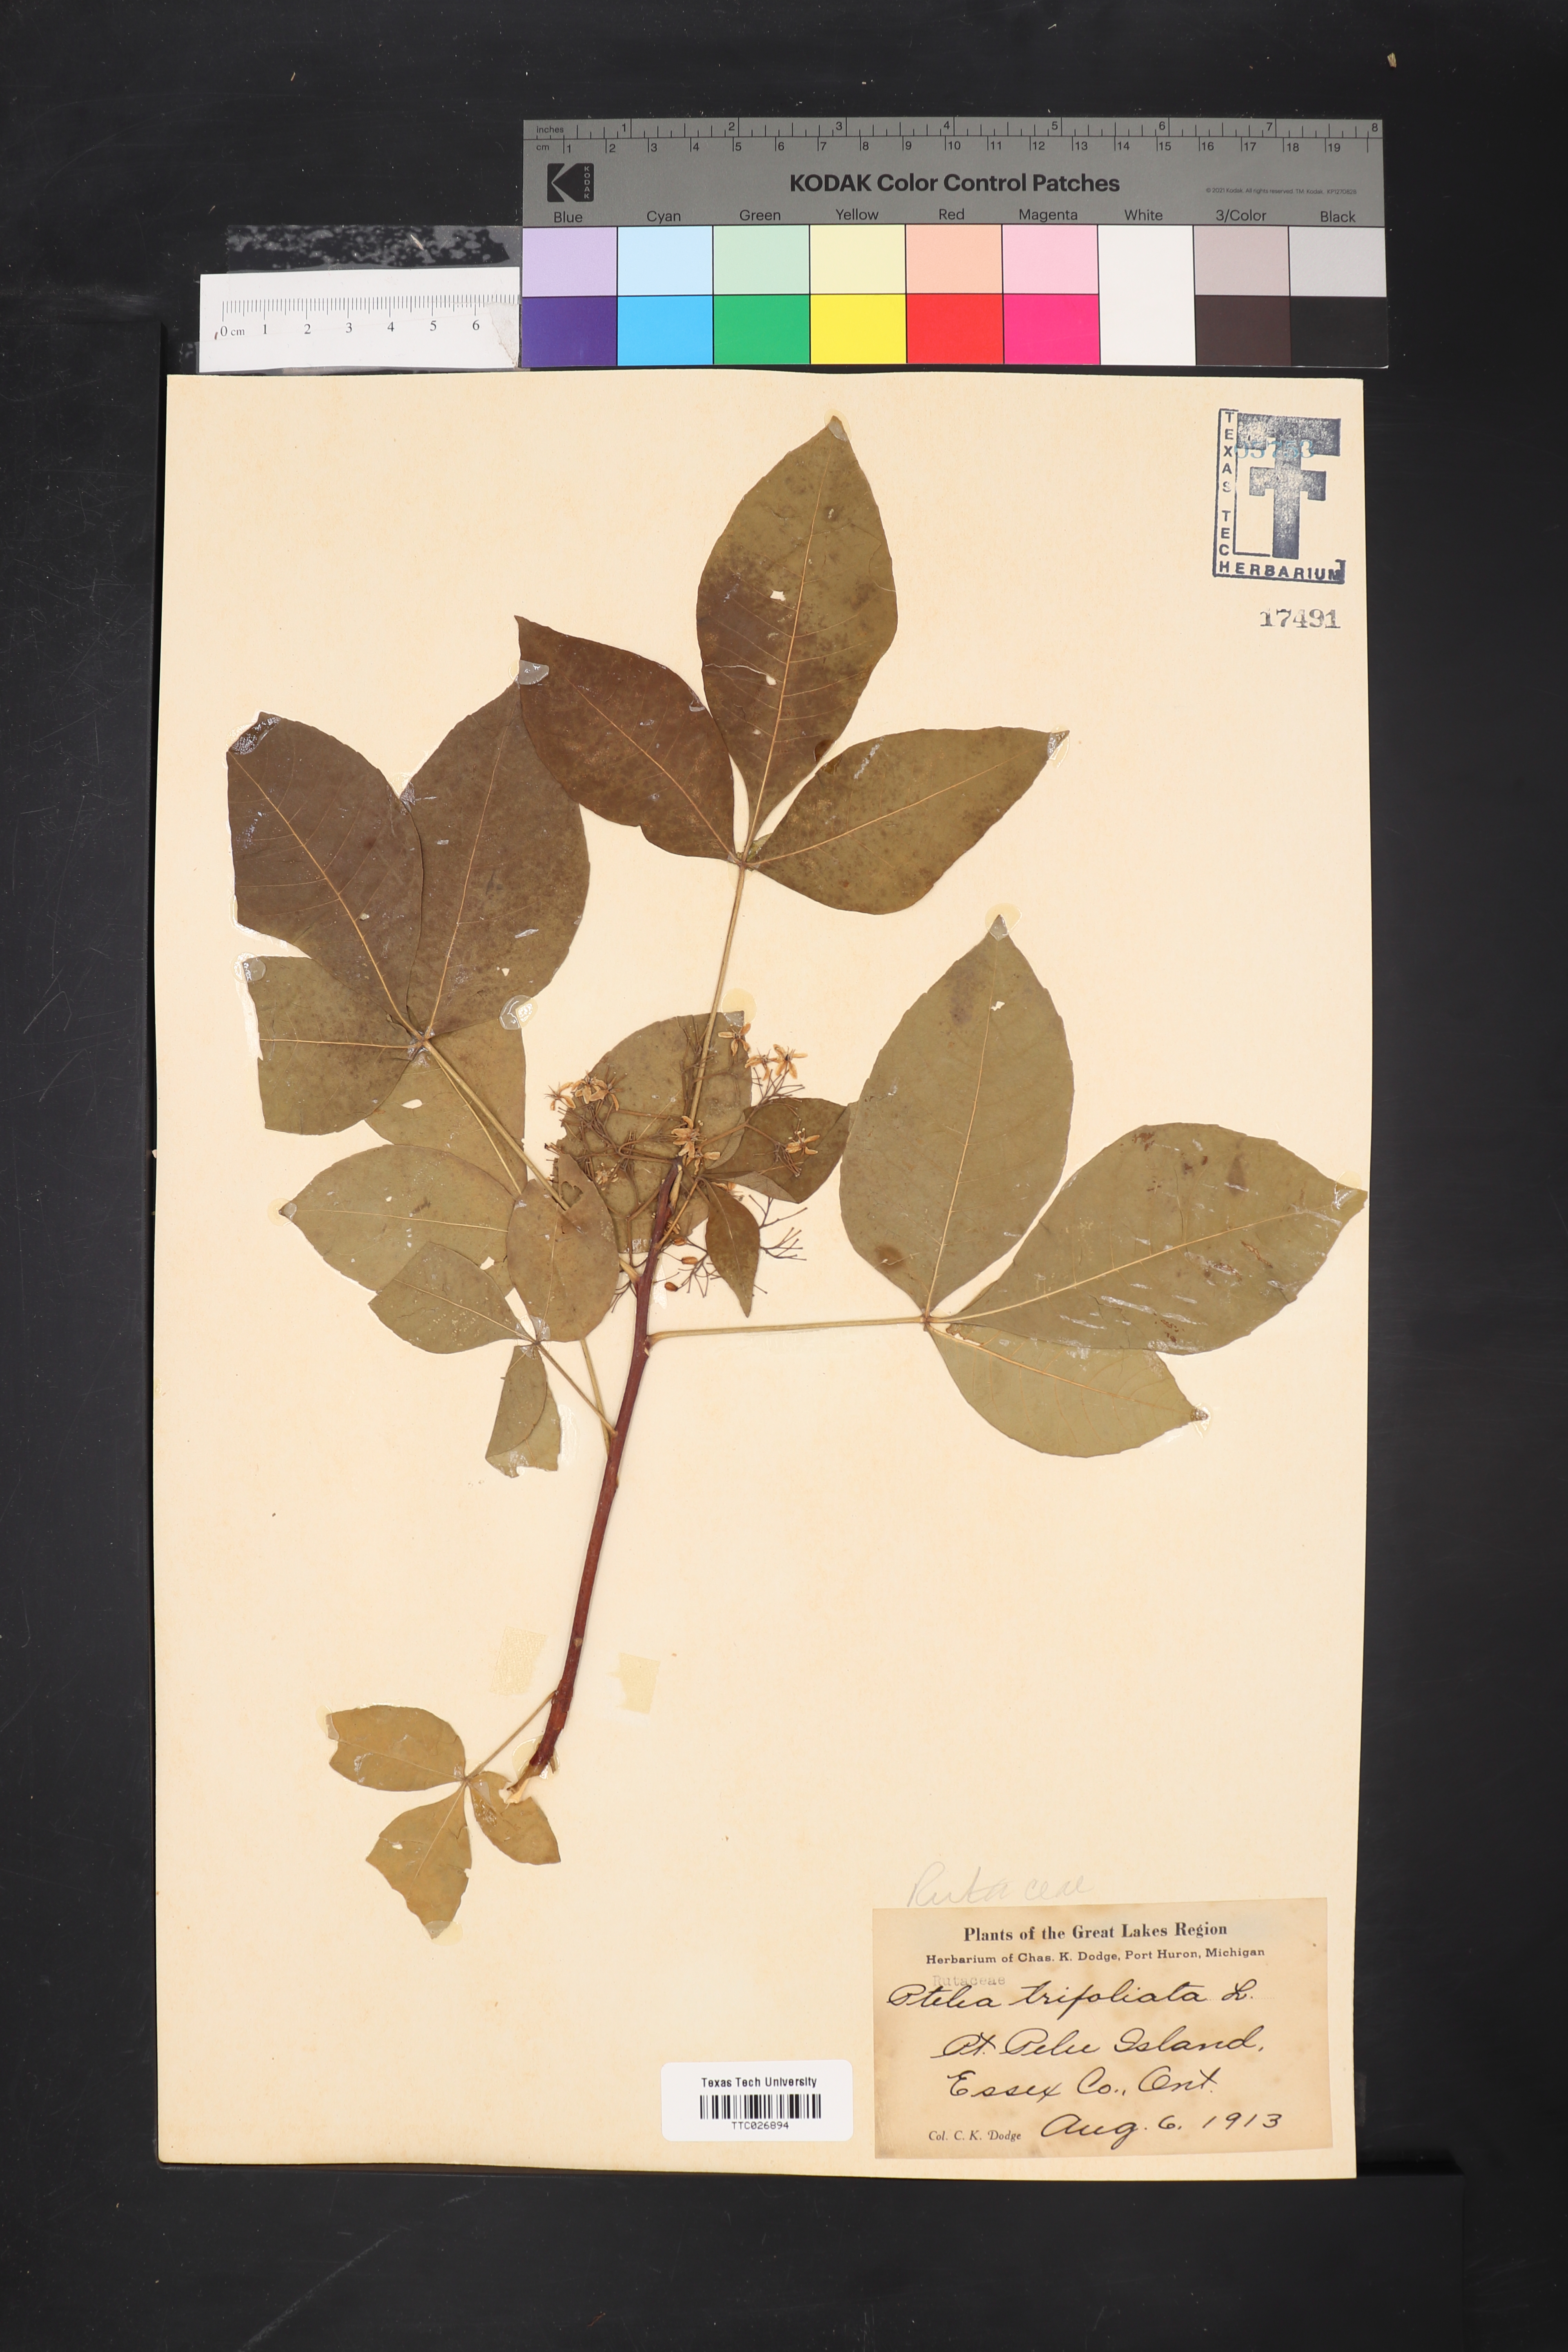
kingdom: Plantae
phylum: Tracheophyta
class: Magnoliopsida
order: Sapindales
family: Rutaceae
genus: Ptelea
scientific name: Ptelea trifoliata
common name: Common hop-tree
